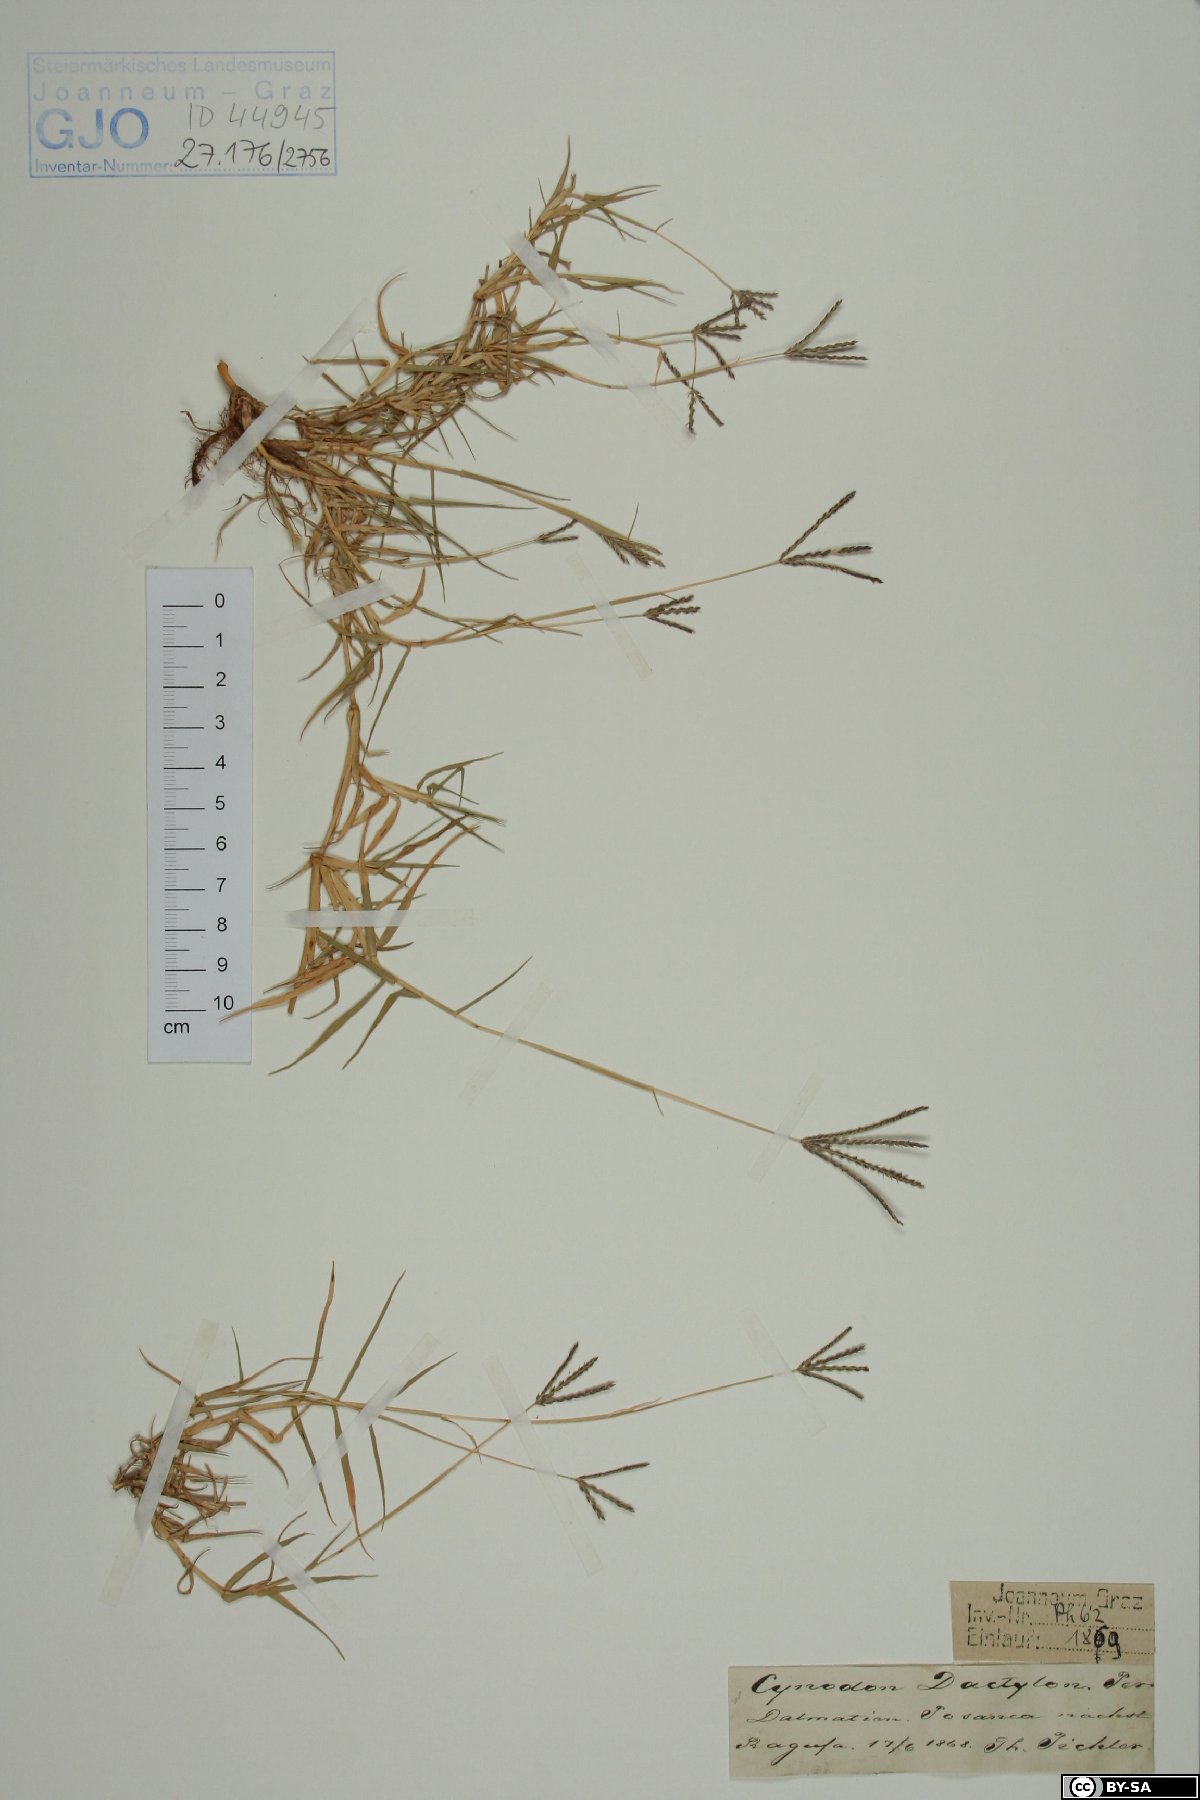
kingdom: Plantae
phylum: Tracheophyta
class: Liliopsida
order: Poales
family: Poaceae
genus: Cynodon
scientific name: Cynodon dactylon
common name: Bermuda grass
